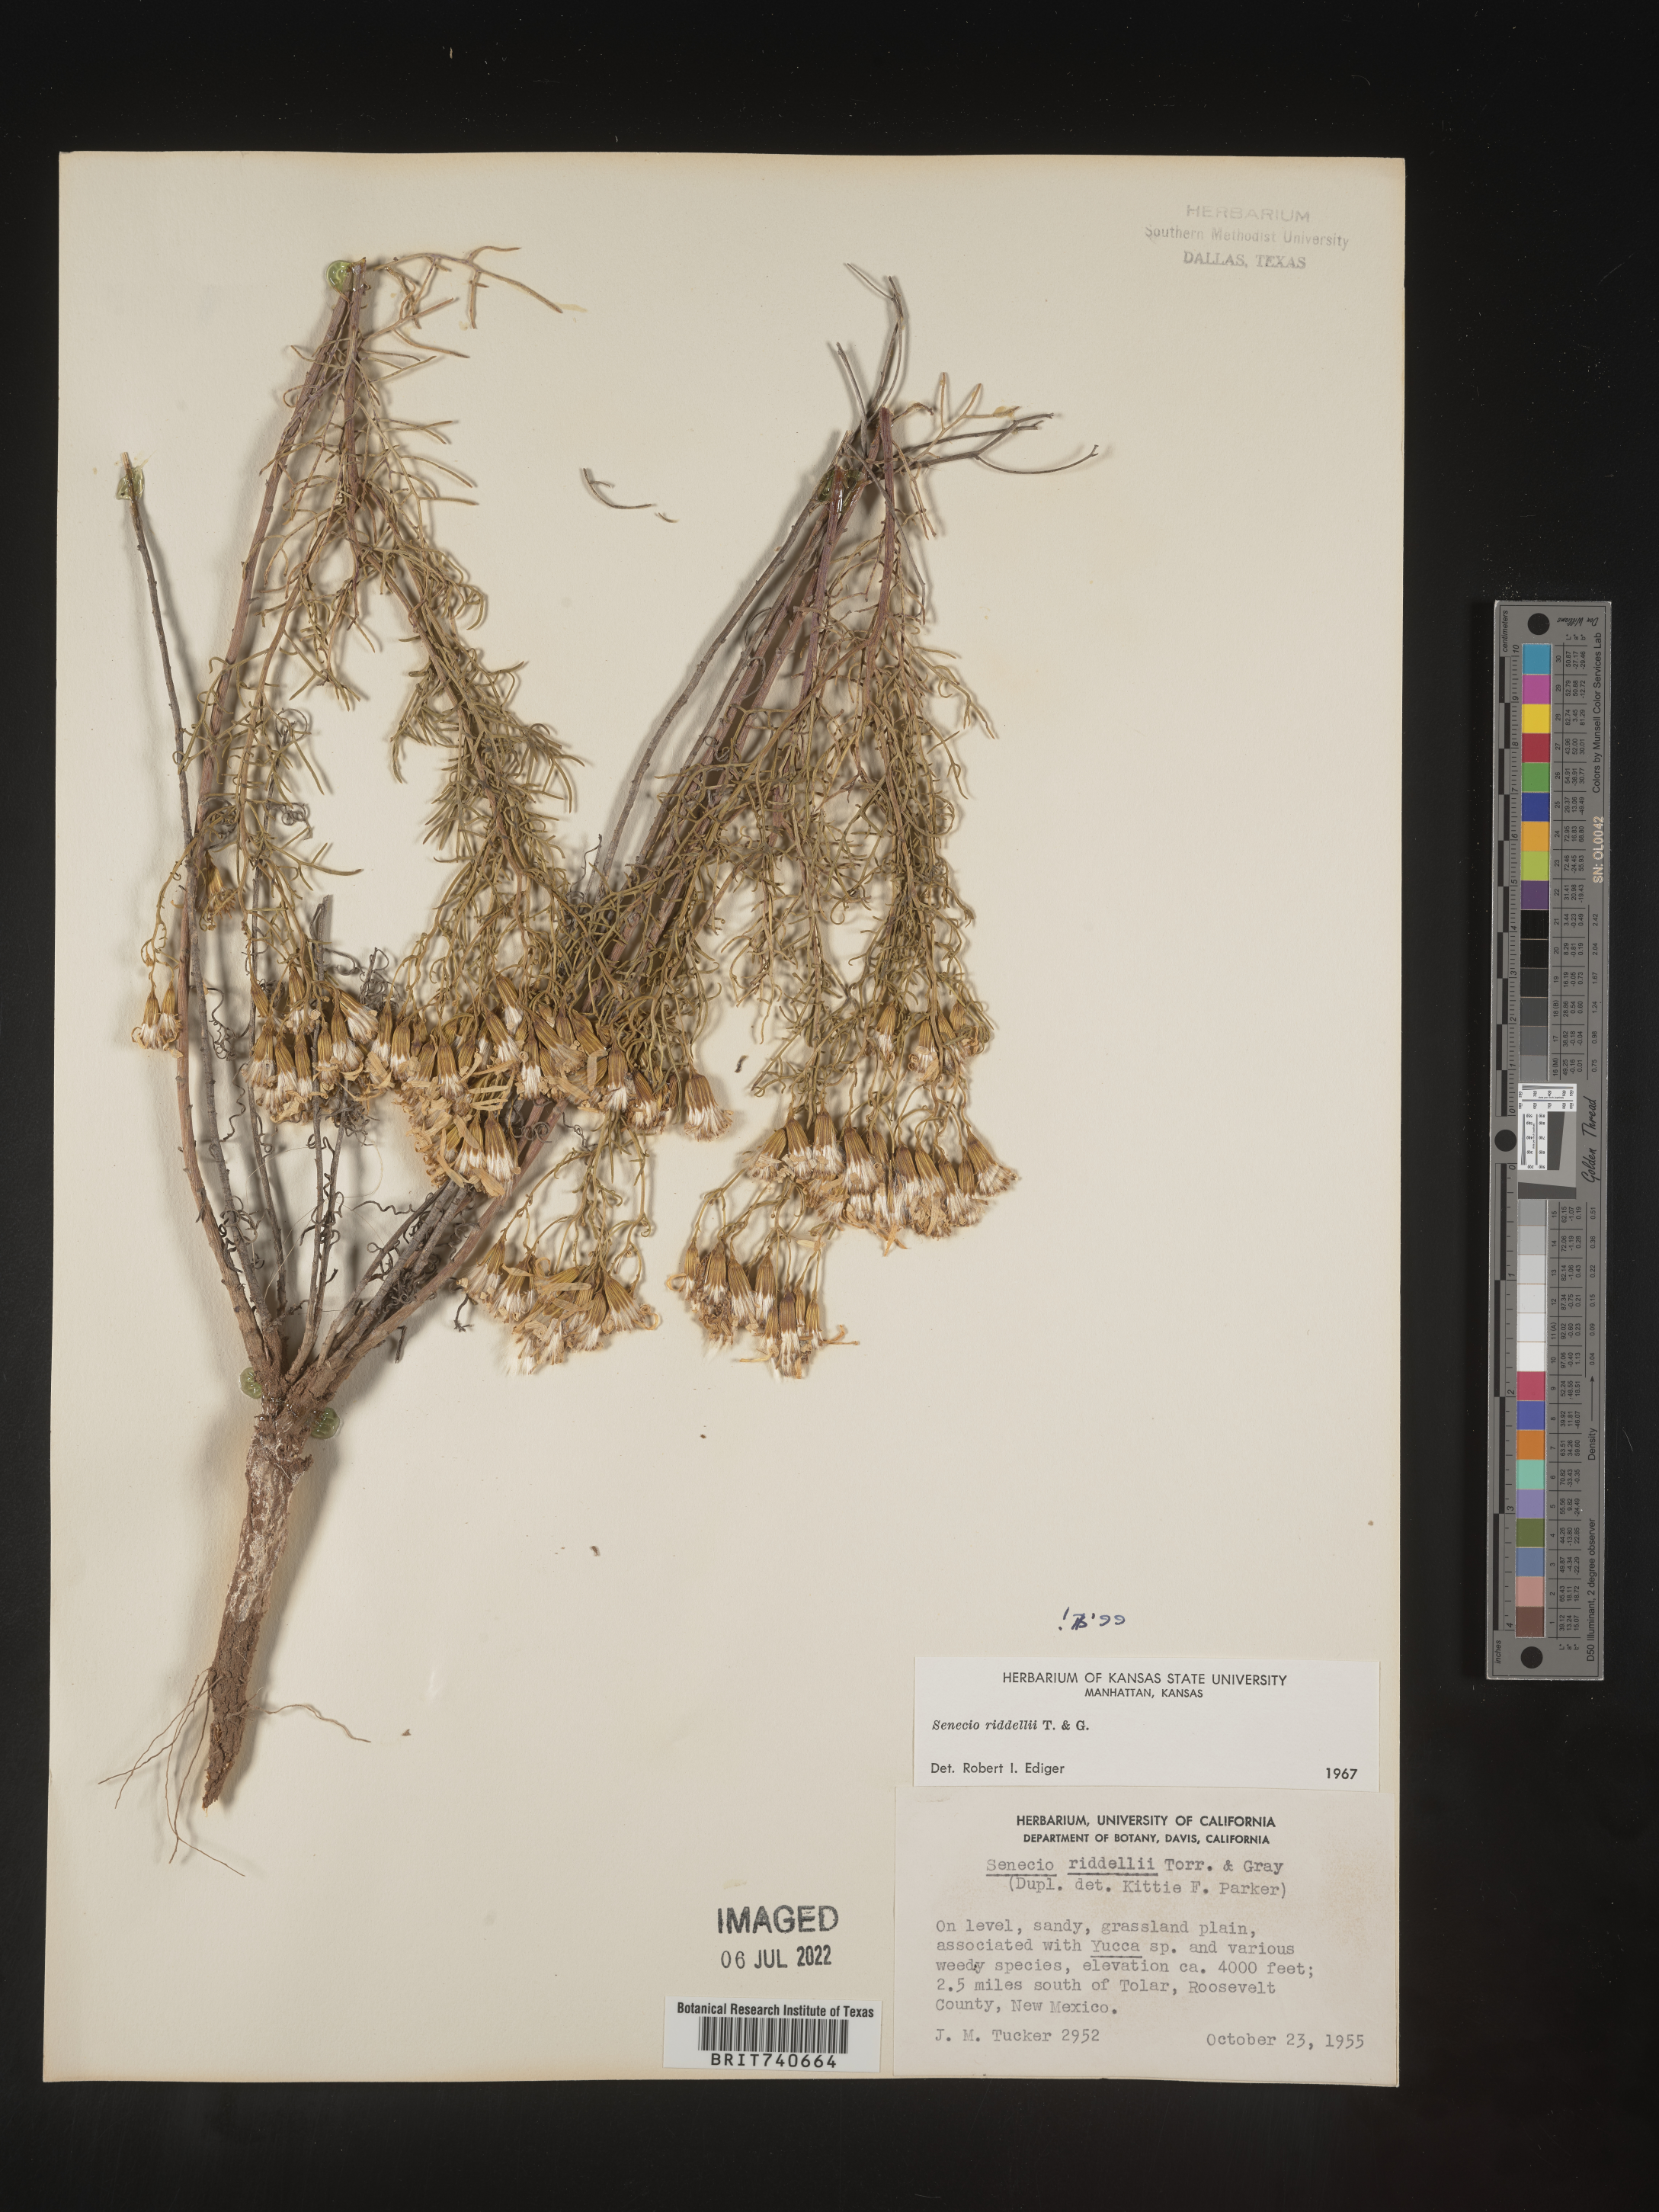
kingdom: Plantae
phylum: Tracheophyta
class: Magnoliopsida
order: Asterales
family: Asteraceae
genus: Senecio
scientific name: Senecio riddellii
